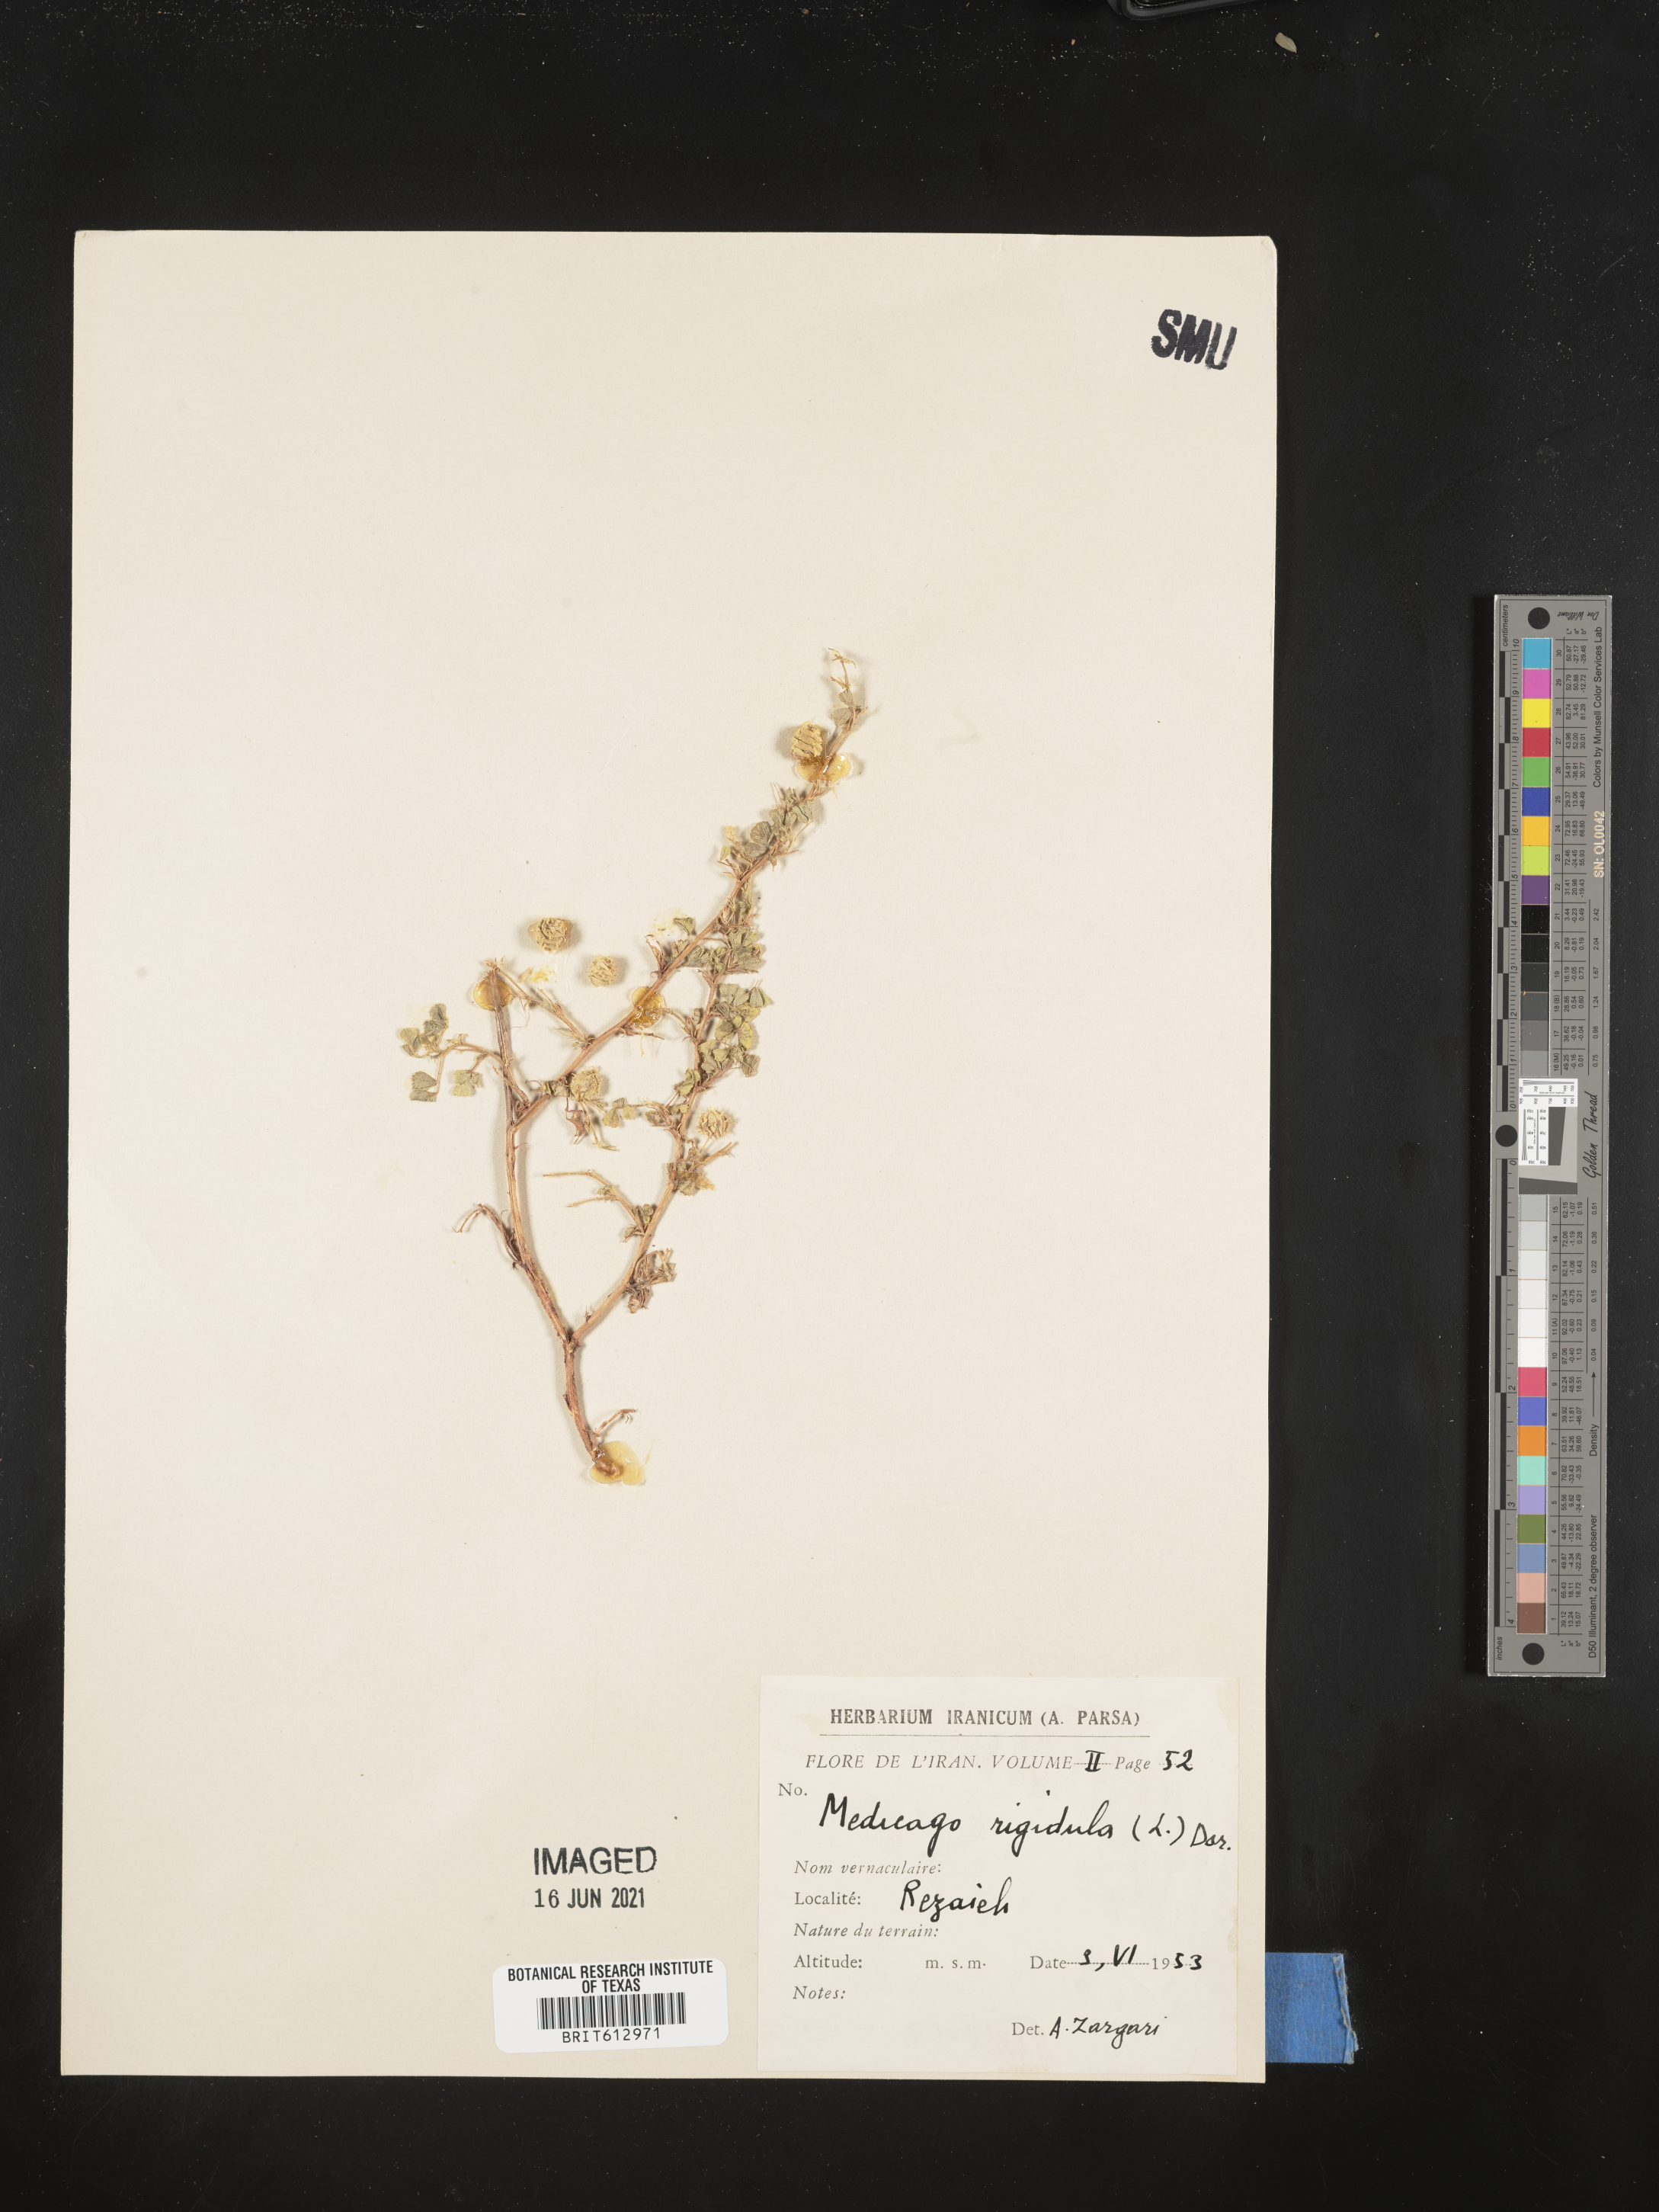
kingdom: Plantae
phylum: Tracheophyta
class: Magnoliopsida
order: Fabales
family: Fabaceae
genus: Medicago
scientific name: Medicago rigidula
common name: Tifton medic
